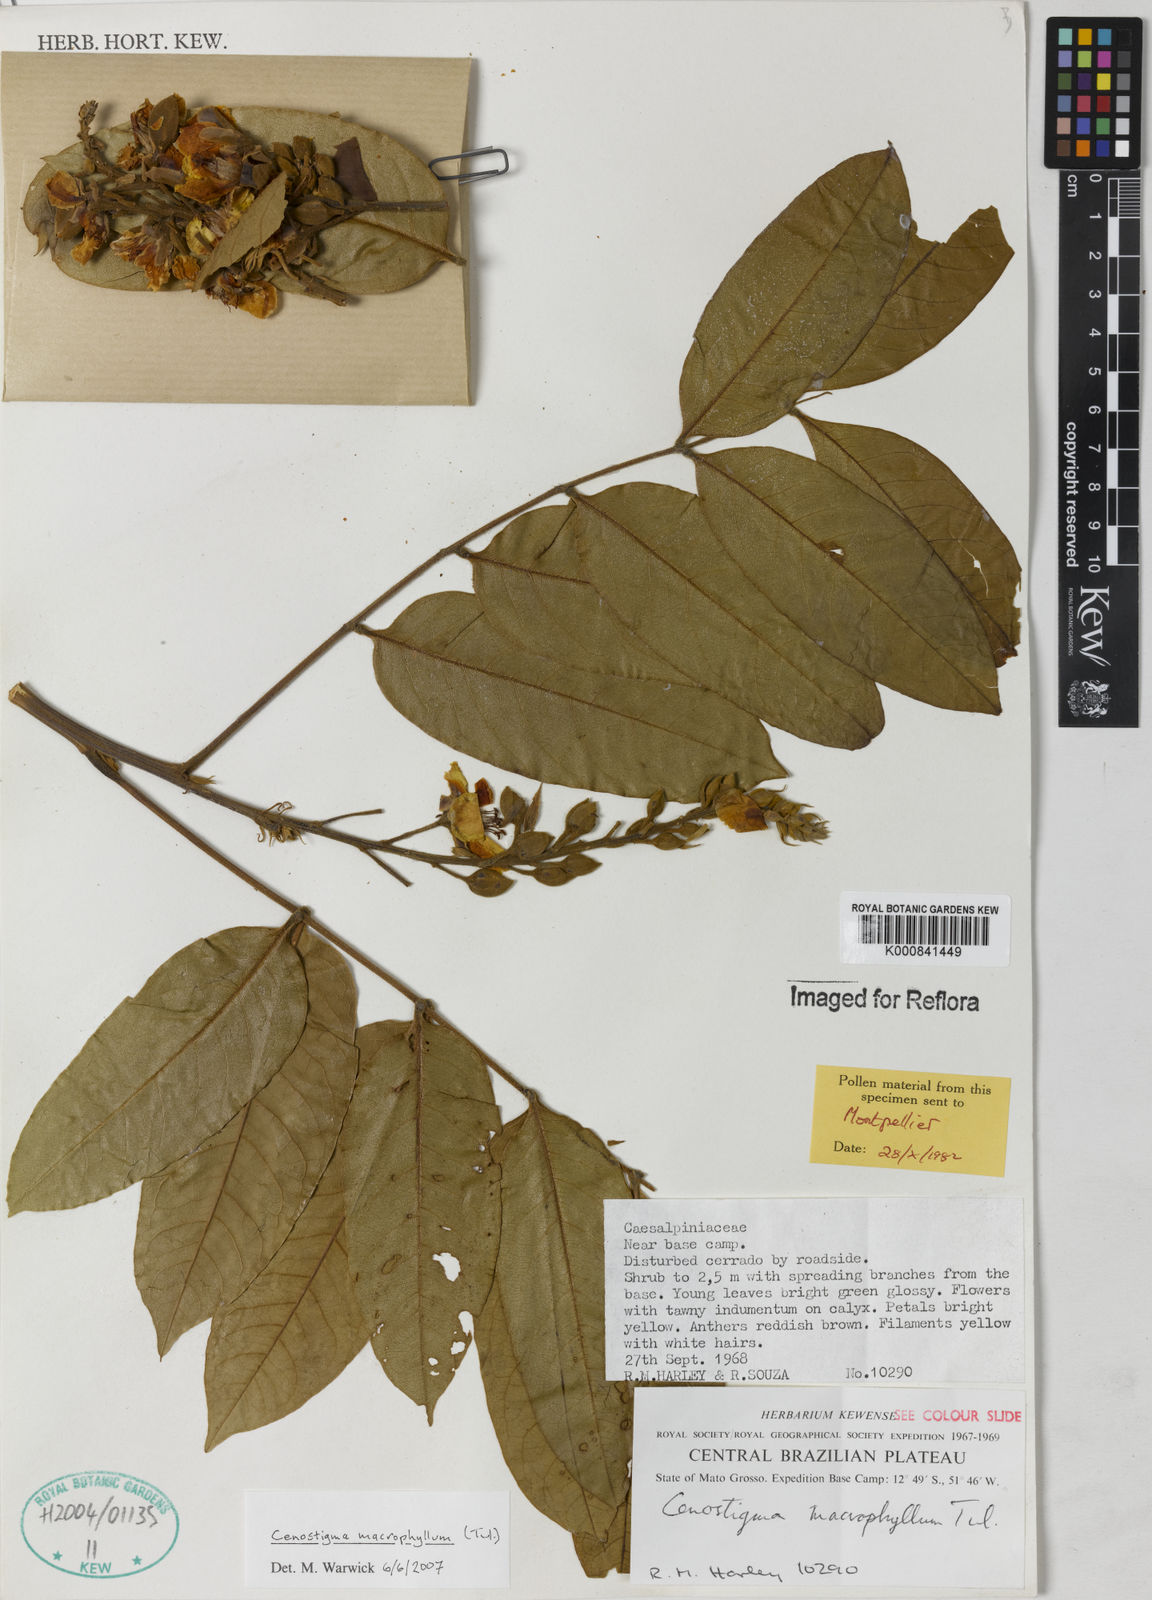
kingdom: Plantae
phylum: Tracheophyta
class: Magnoliopsida
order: Fabales
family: Fabaceae
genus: Cenostigma
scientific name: Cenostigma macrophyllum
